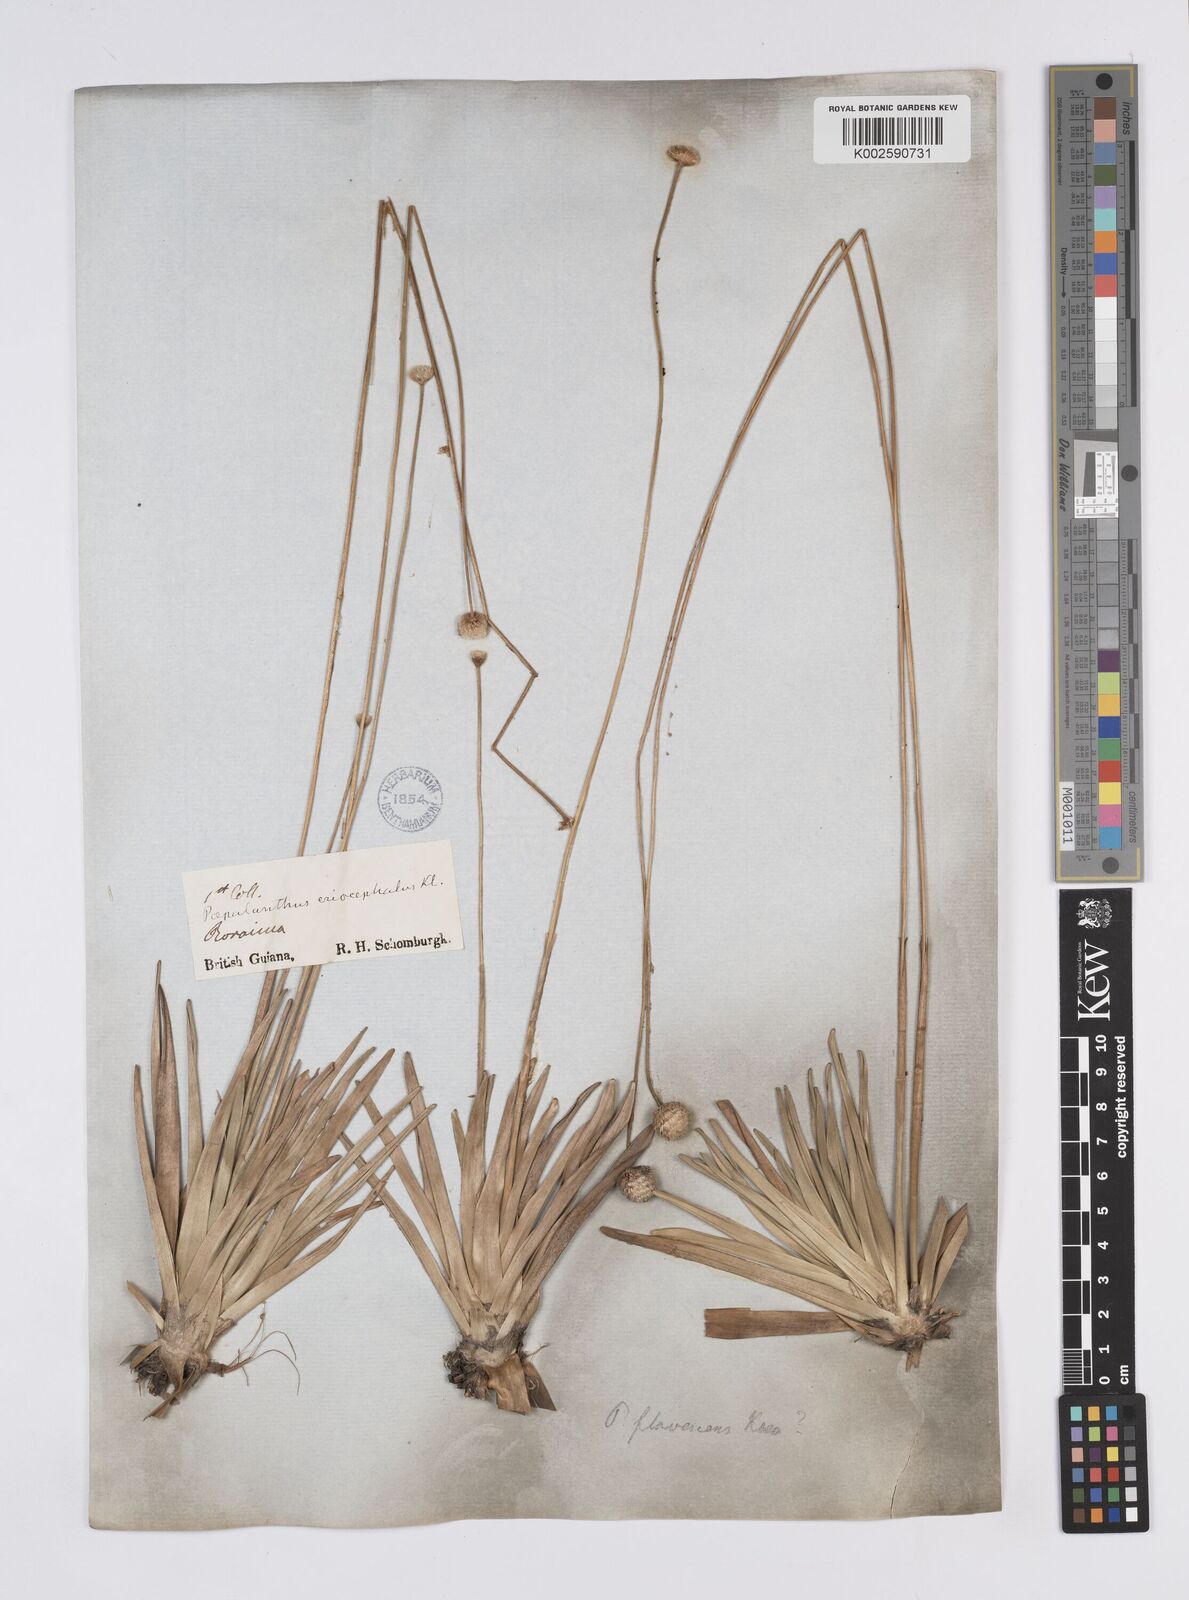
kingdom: Plantae
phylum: Tracheophyta
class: Liliopsida
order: Poales
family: Eriocaulaceae
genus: Leiothrix
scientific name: Leiothrix flavescens
